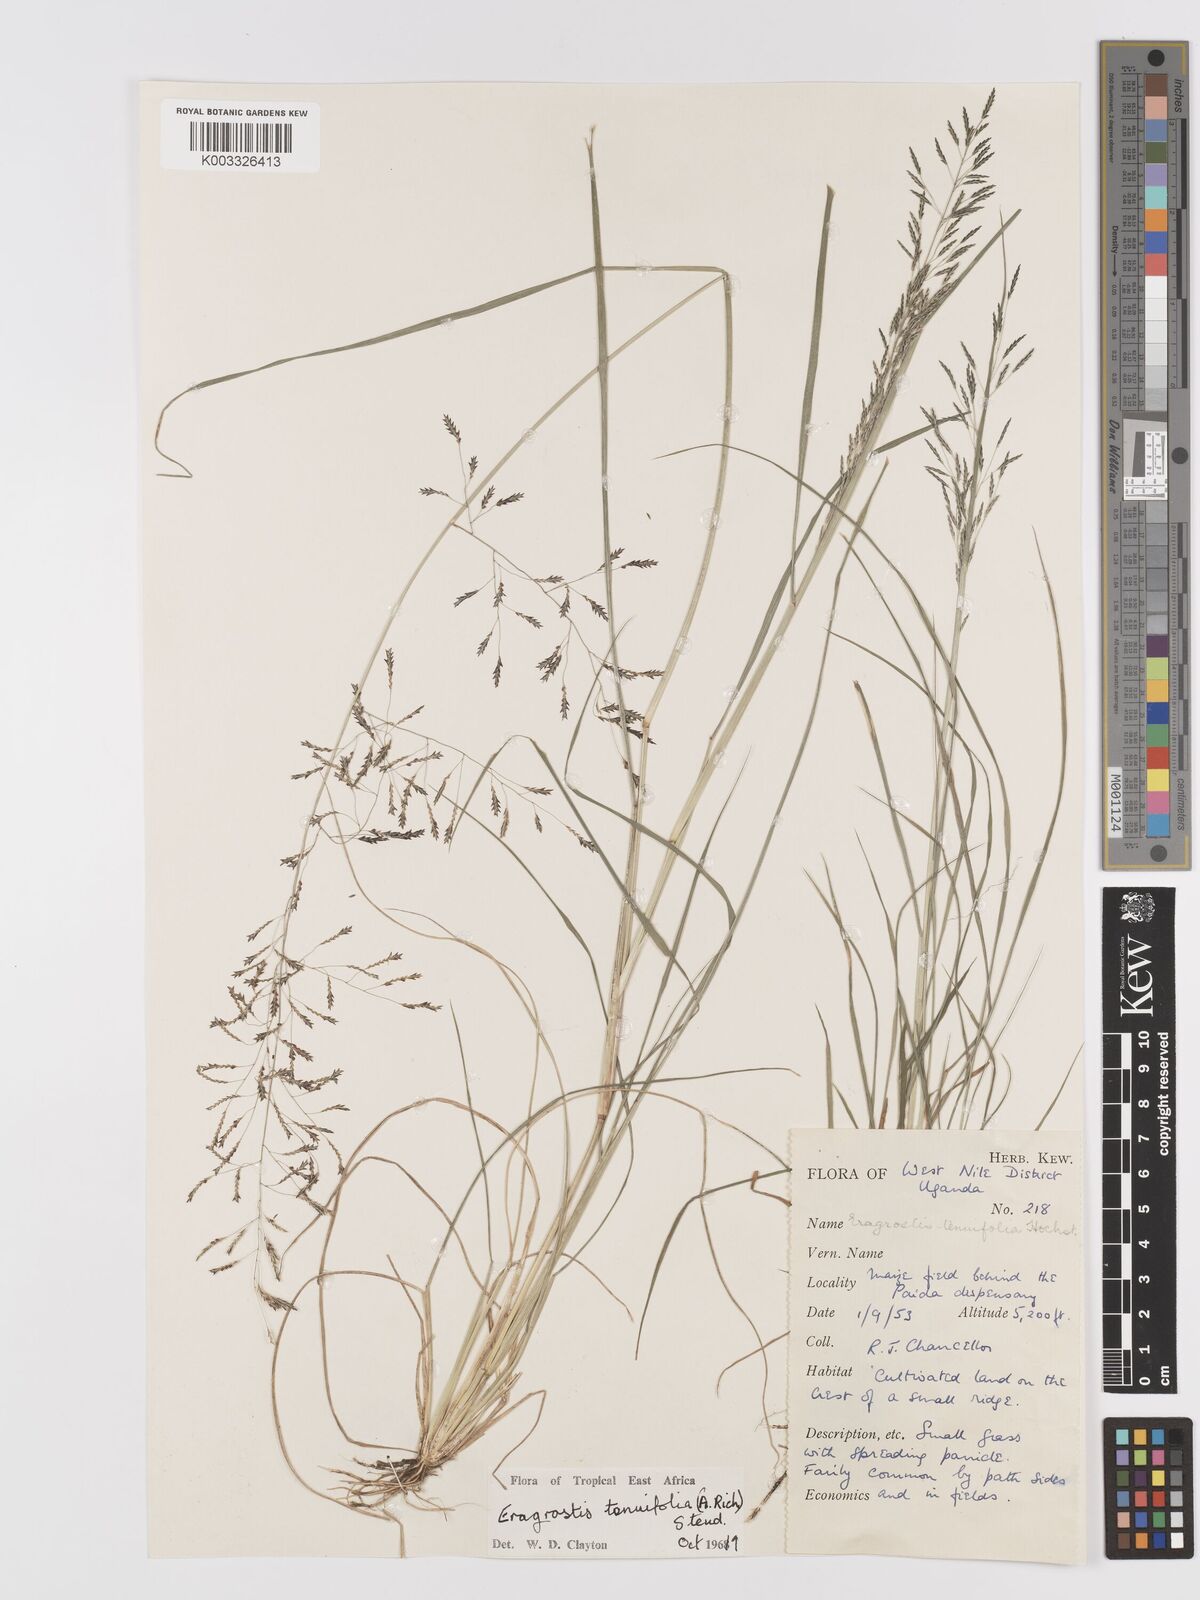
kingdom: Plantae
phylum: Tracheophyta
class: Liliopsida
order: Poales
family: Poaceae
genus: Eragrostis
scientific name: Eragrostis tenuifolia
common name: Elastic grass
